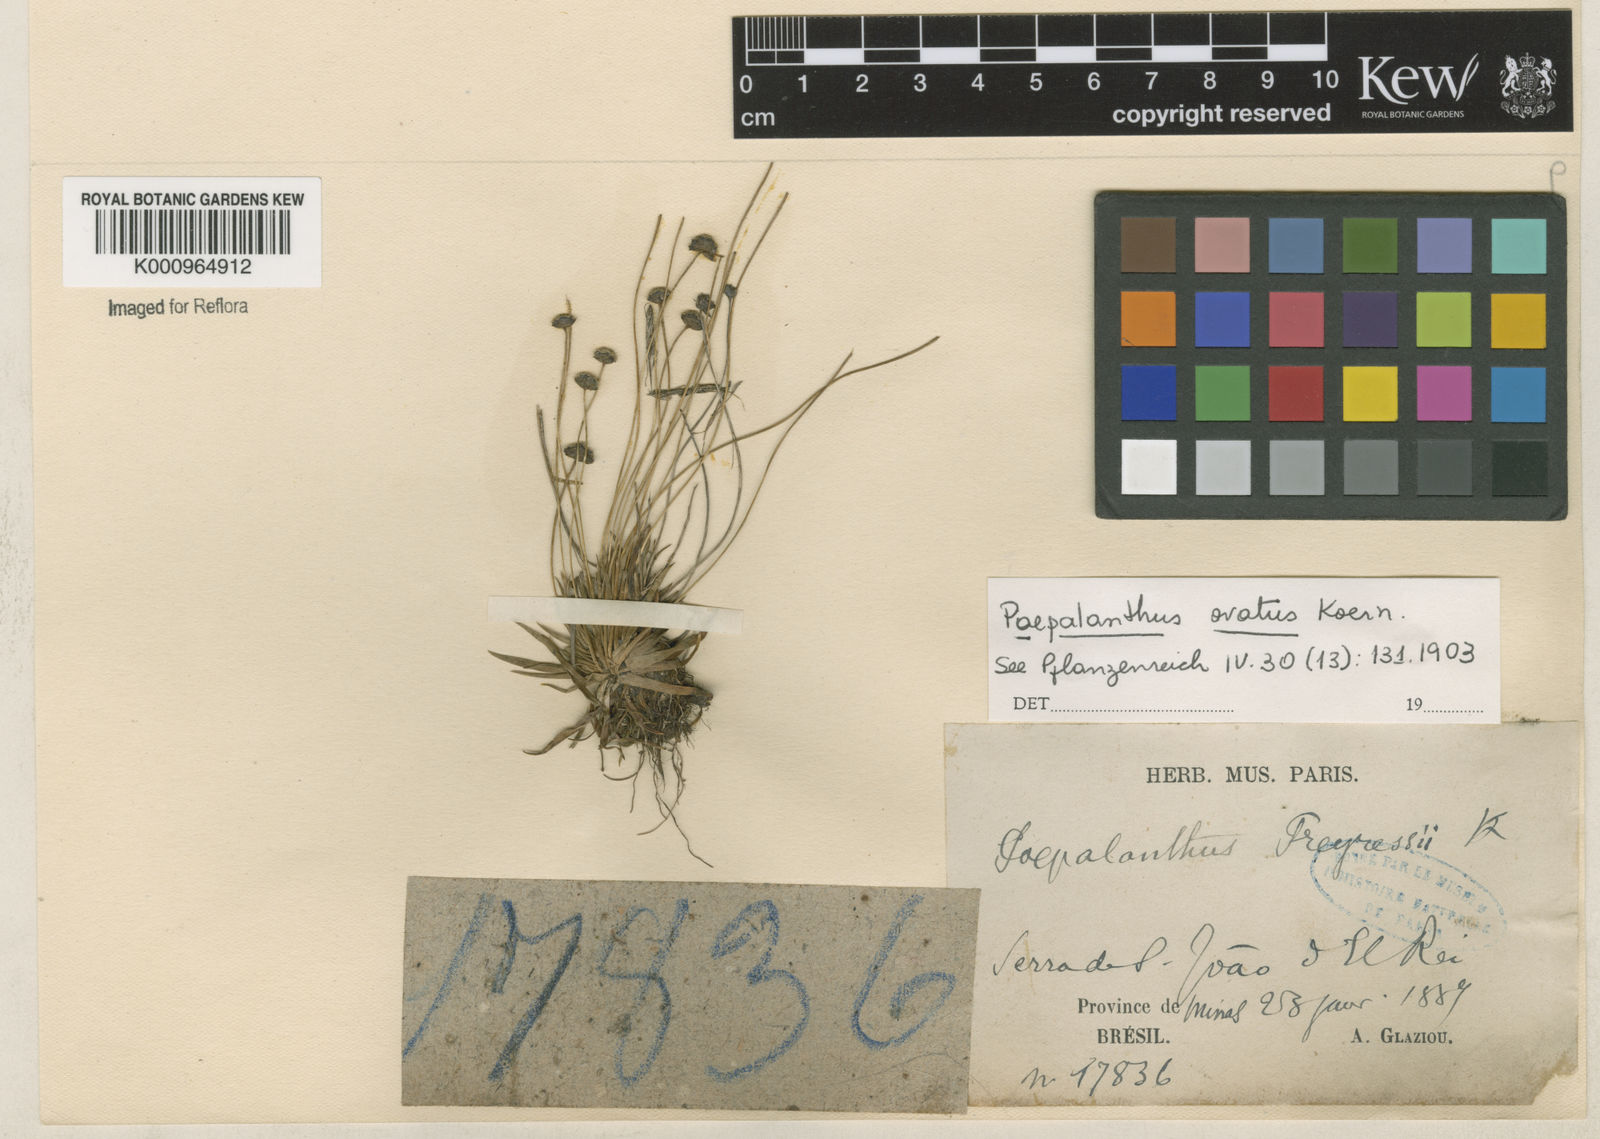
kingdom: Plantae
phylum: Tracheophyta
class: Liliopsida
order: Poales
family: Eriocaulaceae
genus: Paepalanthus
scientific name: Paepalanthus
